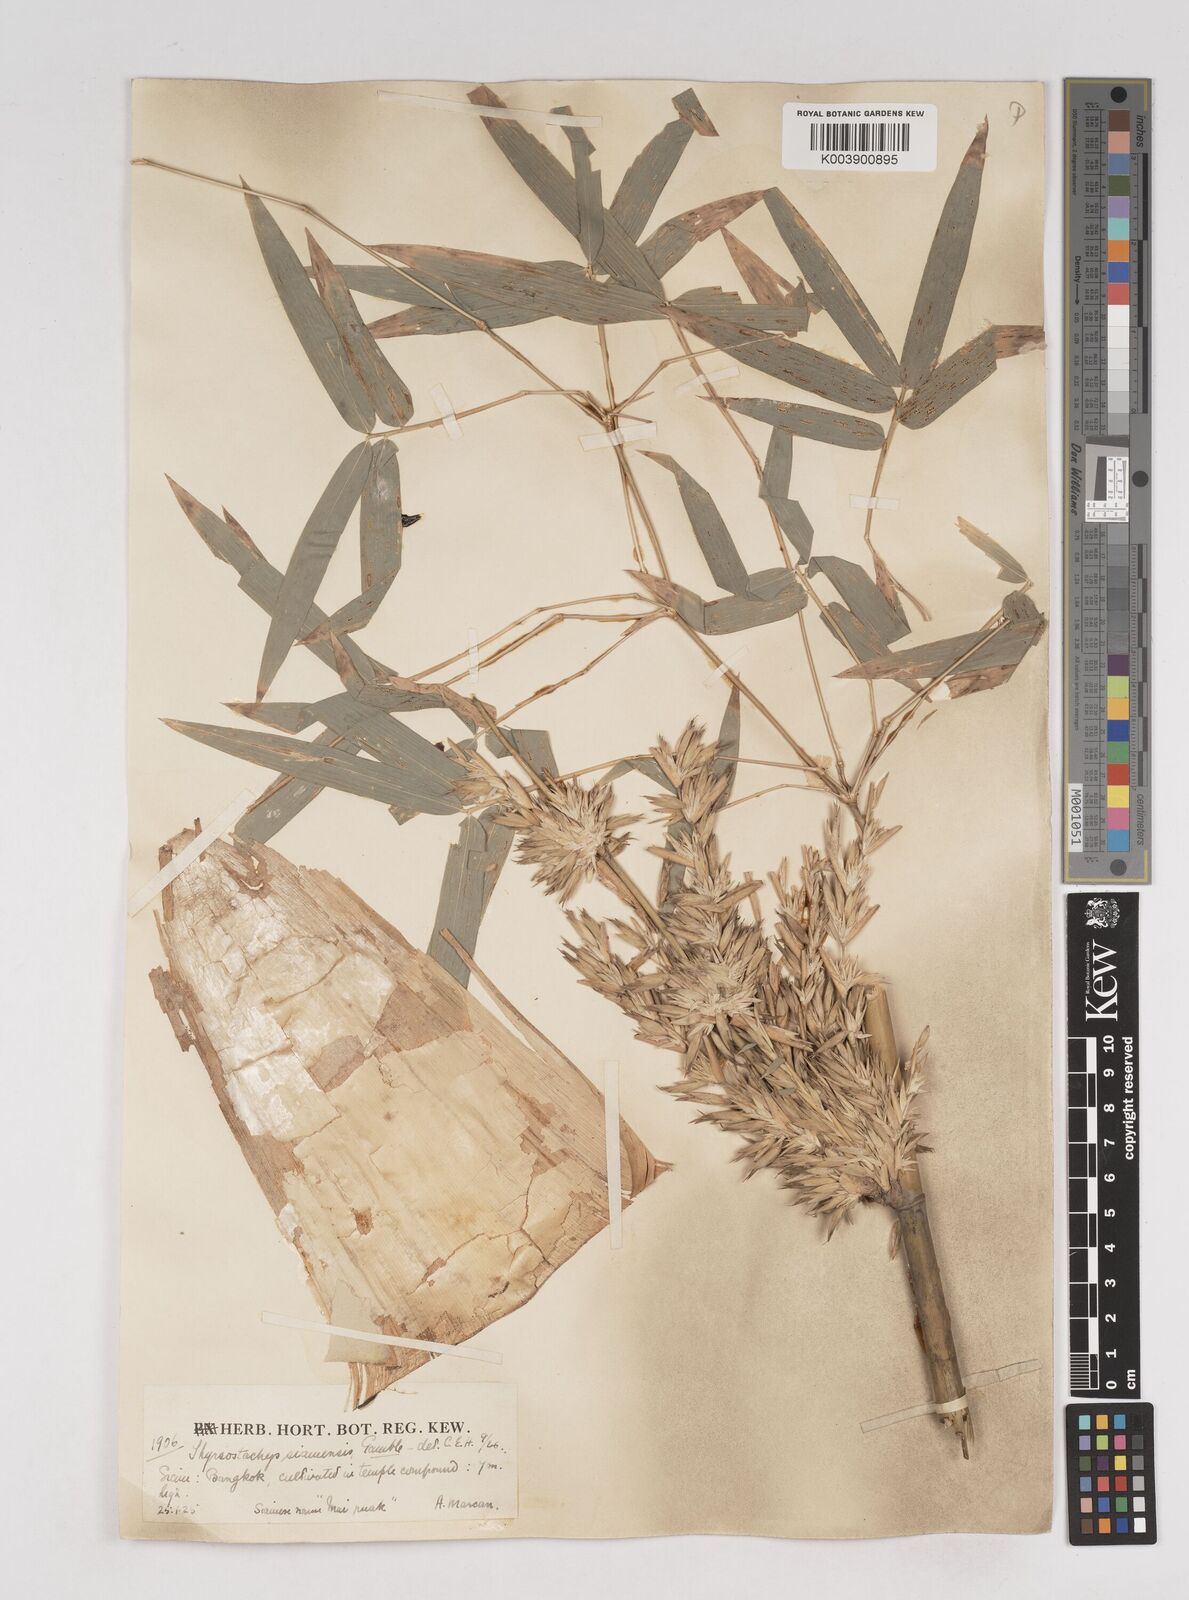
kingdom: Plantae
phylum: Tracheophyta
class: Liliopsida
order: Poales
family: Poaceae
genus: Thyrsostachys
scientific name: Thyrsostachys siamensis
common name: Thailand bamboo
